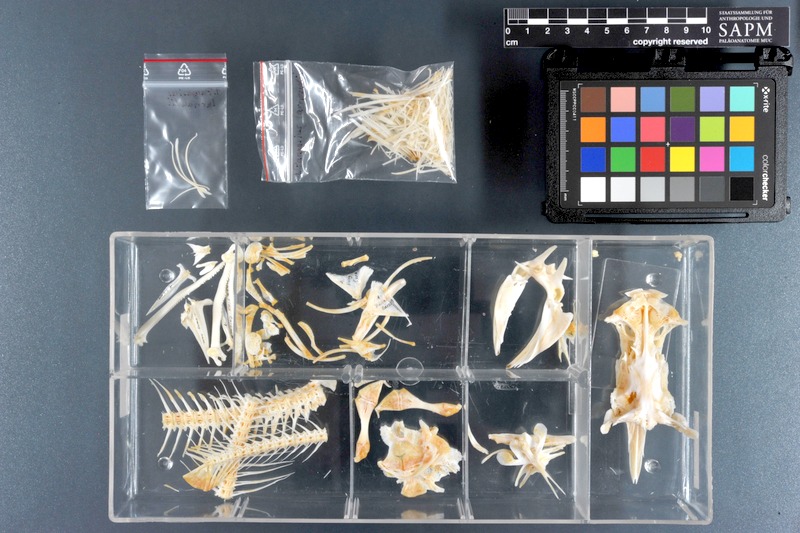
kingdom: Animalia
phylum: Chordata
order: Siluriformes
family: Pangasiidae
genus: Pangasius
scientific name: Pangasius larnaudii
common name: Spot pangasius
